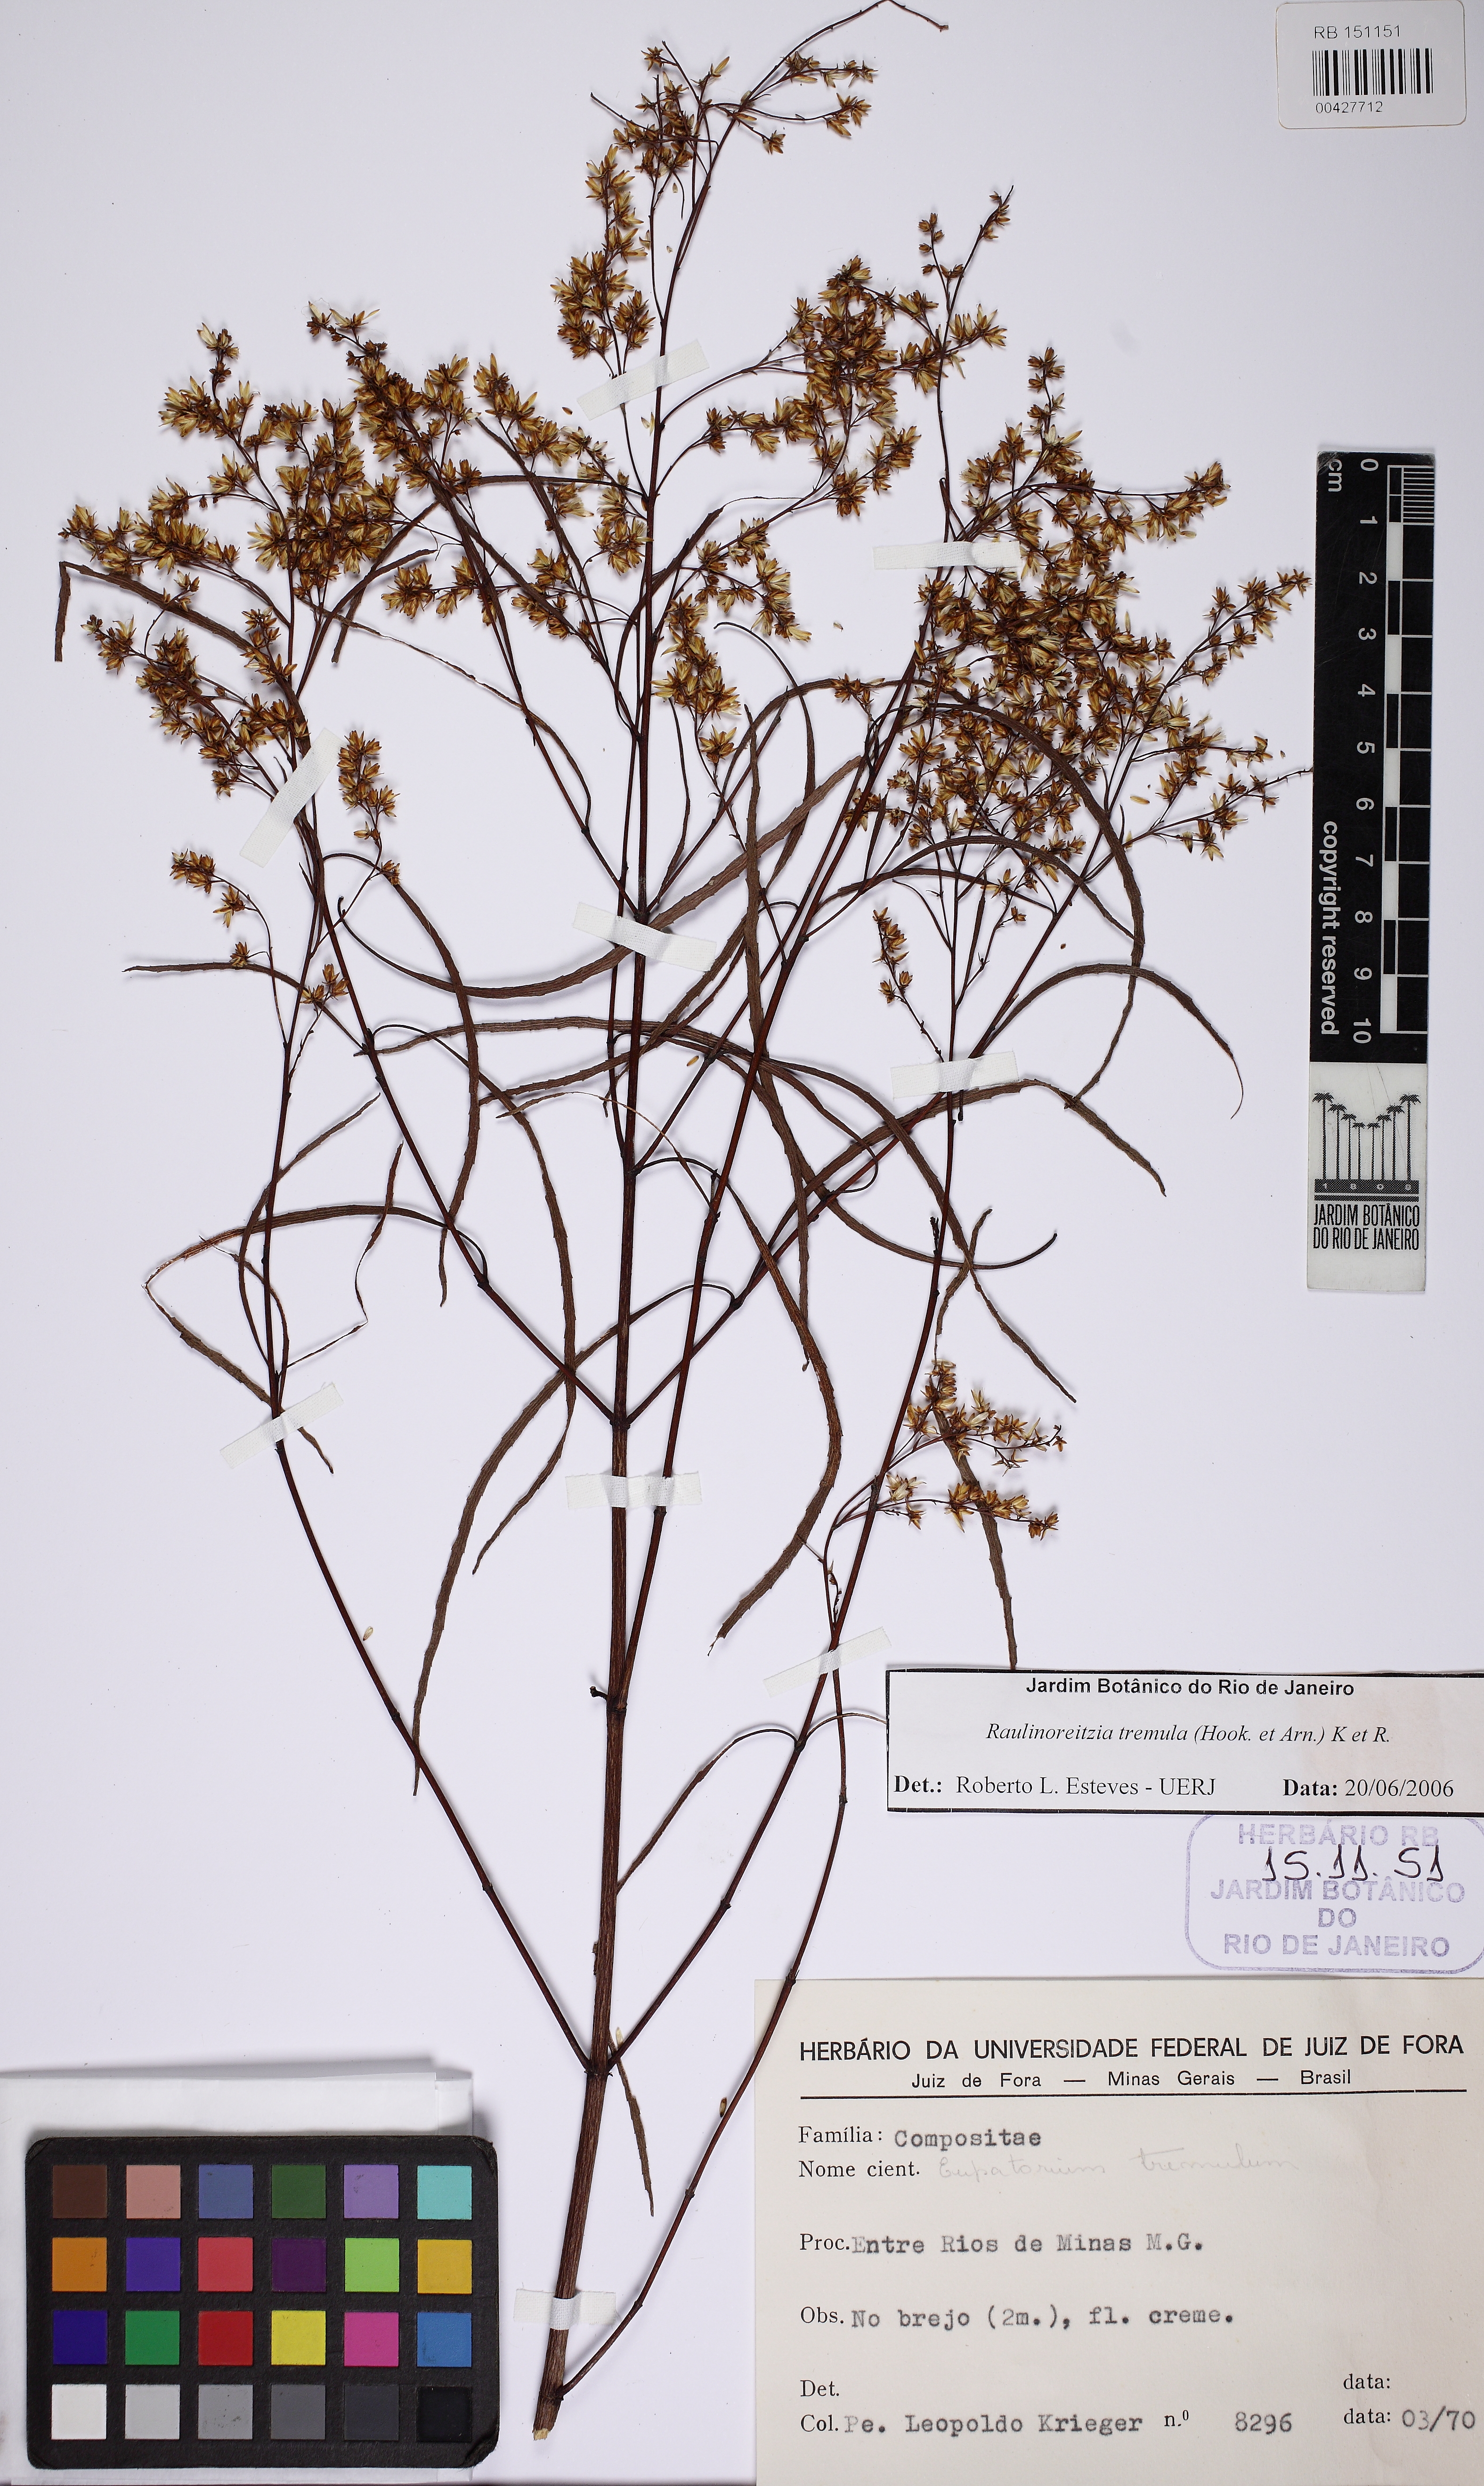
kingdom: Plantae
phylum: Tracheophyta
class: Magnoliopsida
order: Asterales
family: Asteraceae
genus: Raulinoreitzia
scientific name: Raulinoreitzia tremula
